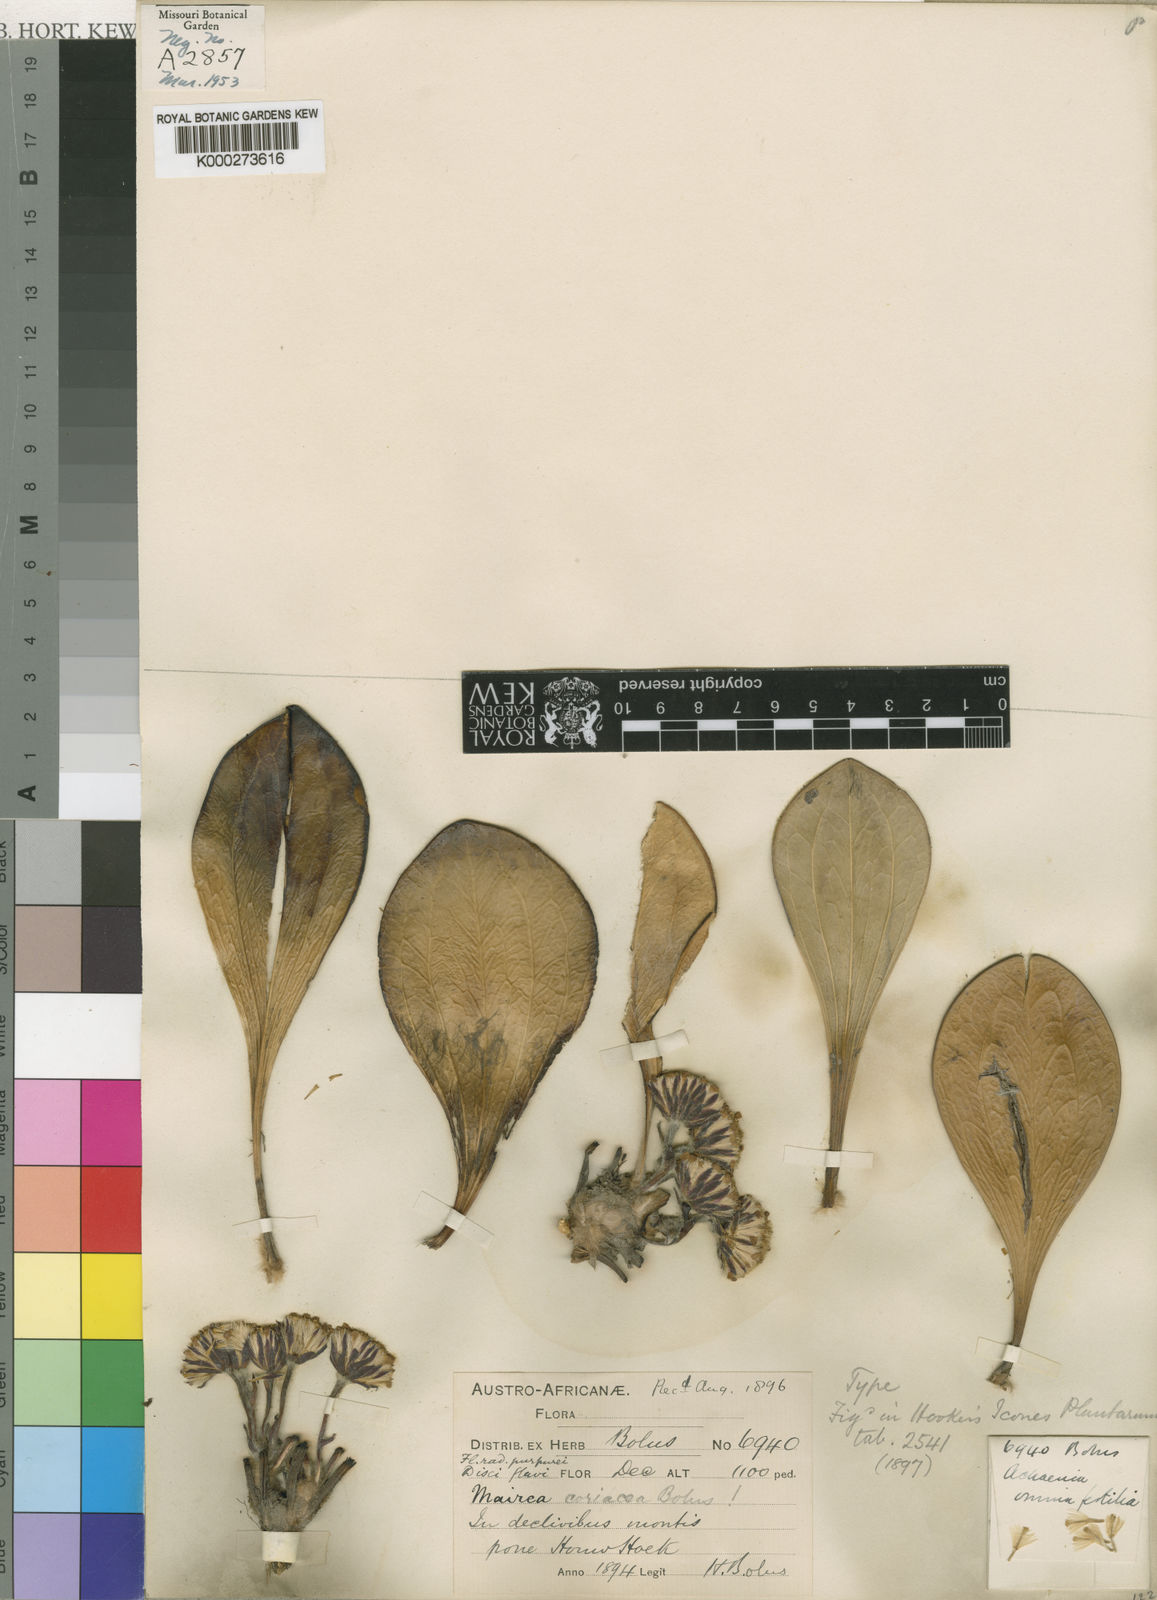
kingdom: Plantae
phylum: Tracheophyta
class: Magnoliopsida
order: Asterales
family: Asteraceae
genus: Mairia
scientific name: Mairia coriacea
